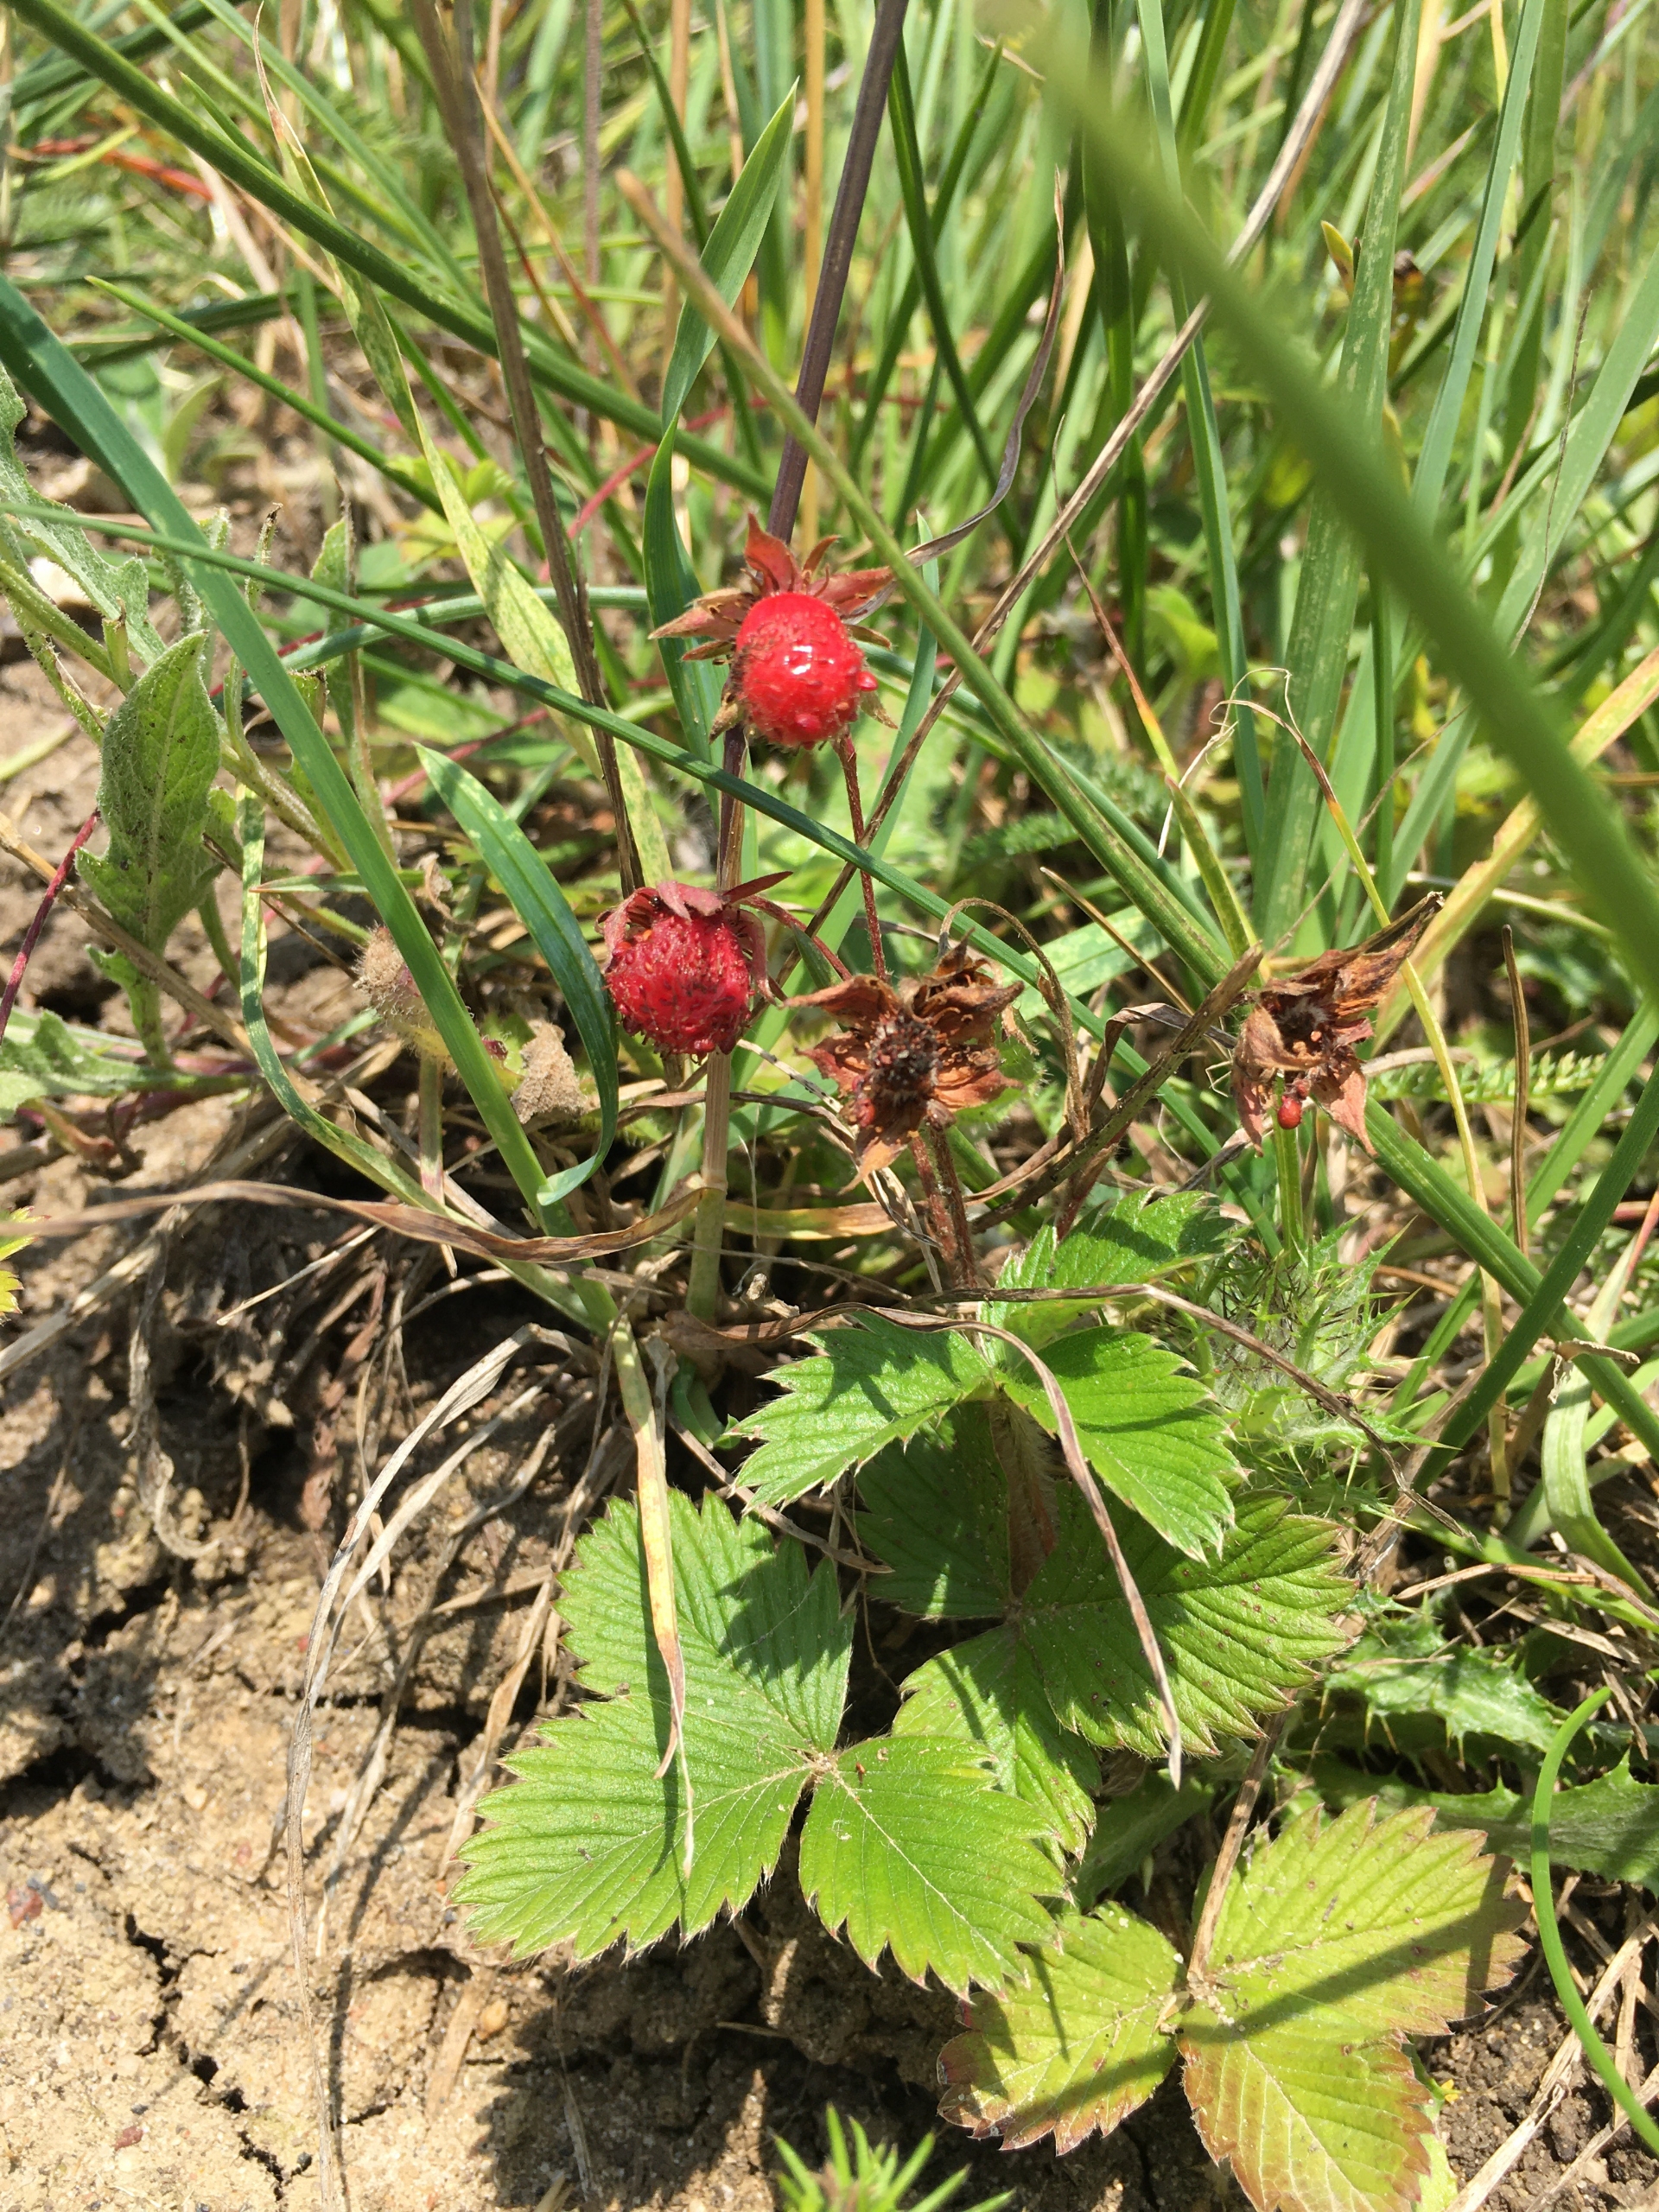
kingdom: Plantae
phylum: Tracheophyta
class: Magnoliopsida
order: Rosales
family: Rosaceae
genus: Fragaria
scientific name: Fragaria viridis
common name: Bakke-jordbær
